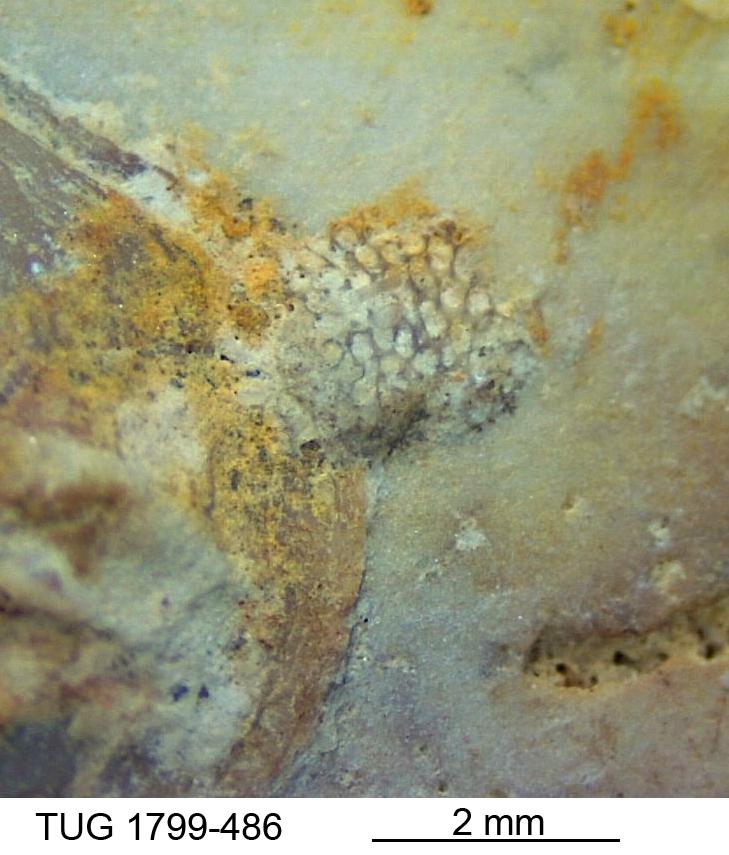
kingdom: Animalia
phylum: Bryozoa
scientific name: Bryozoa
